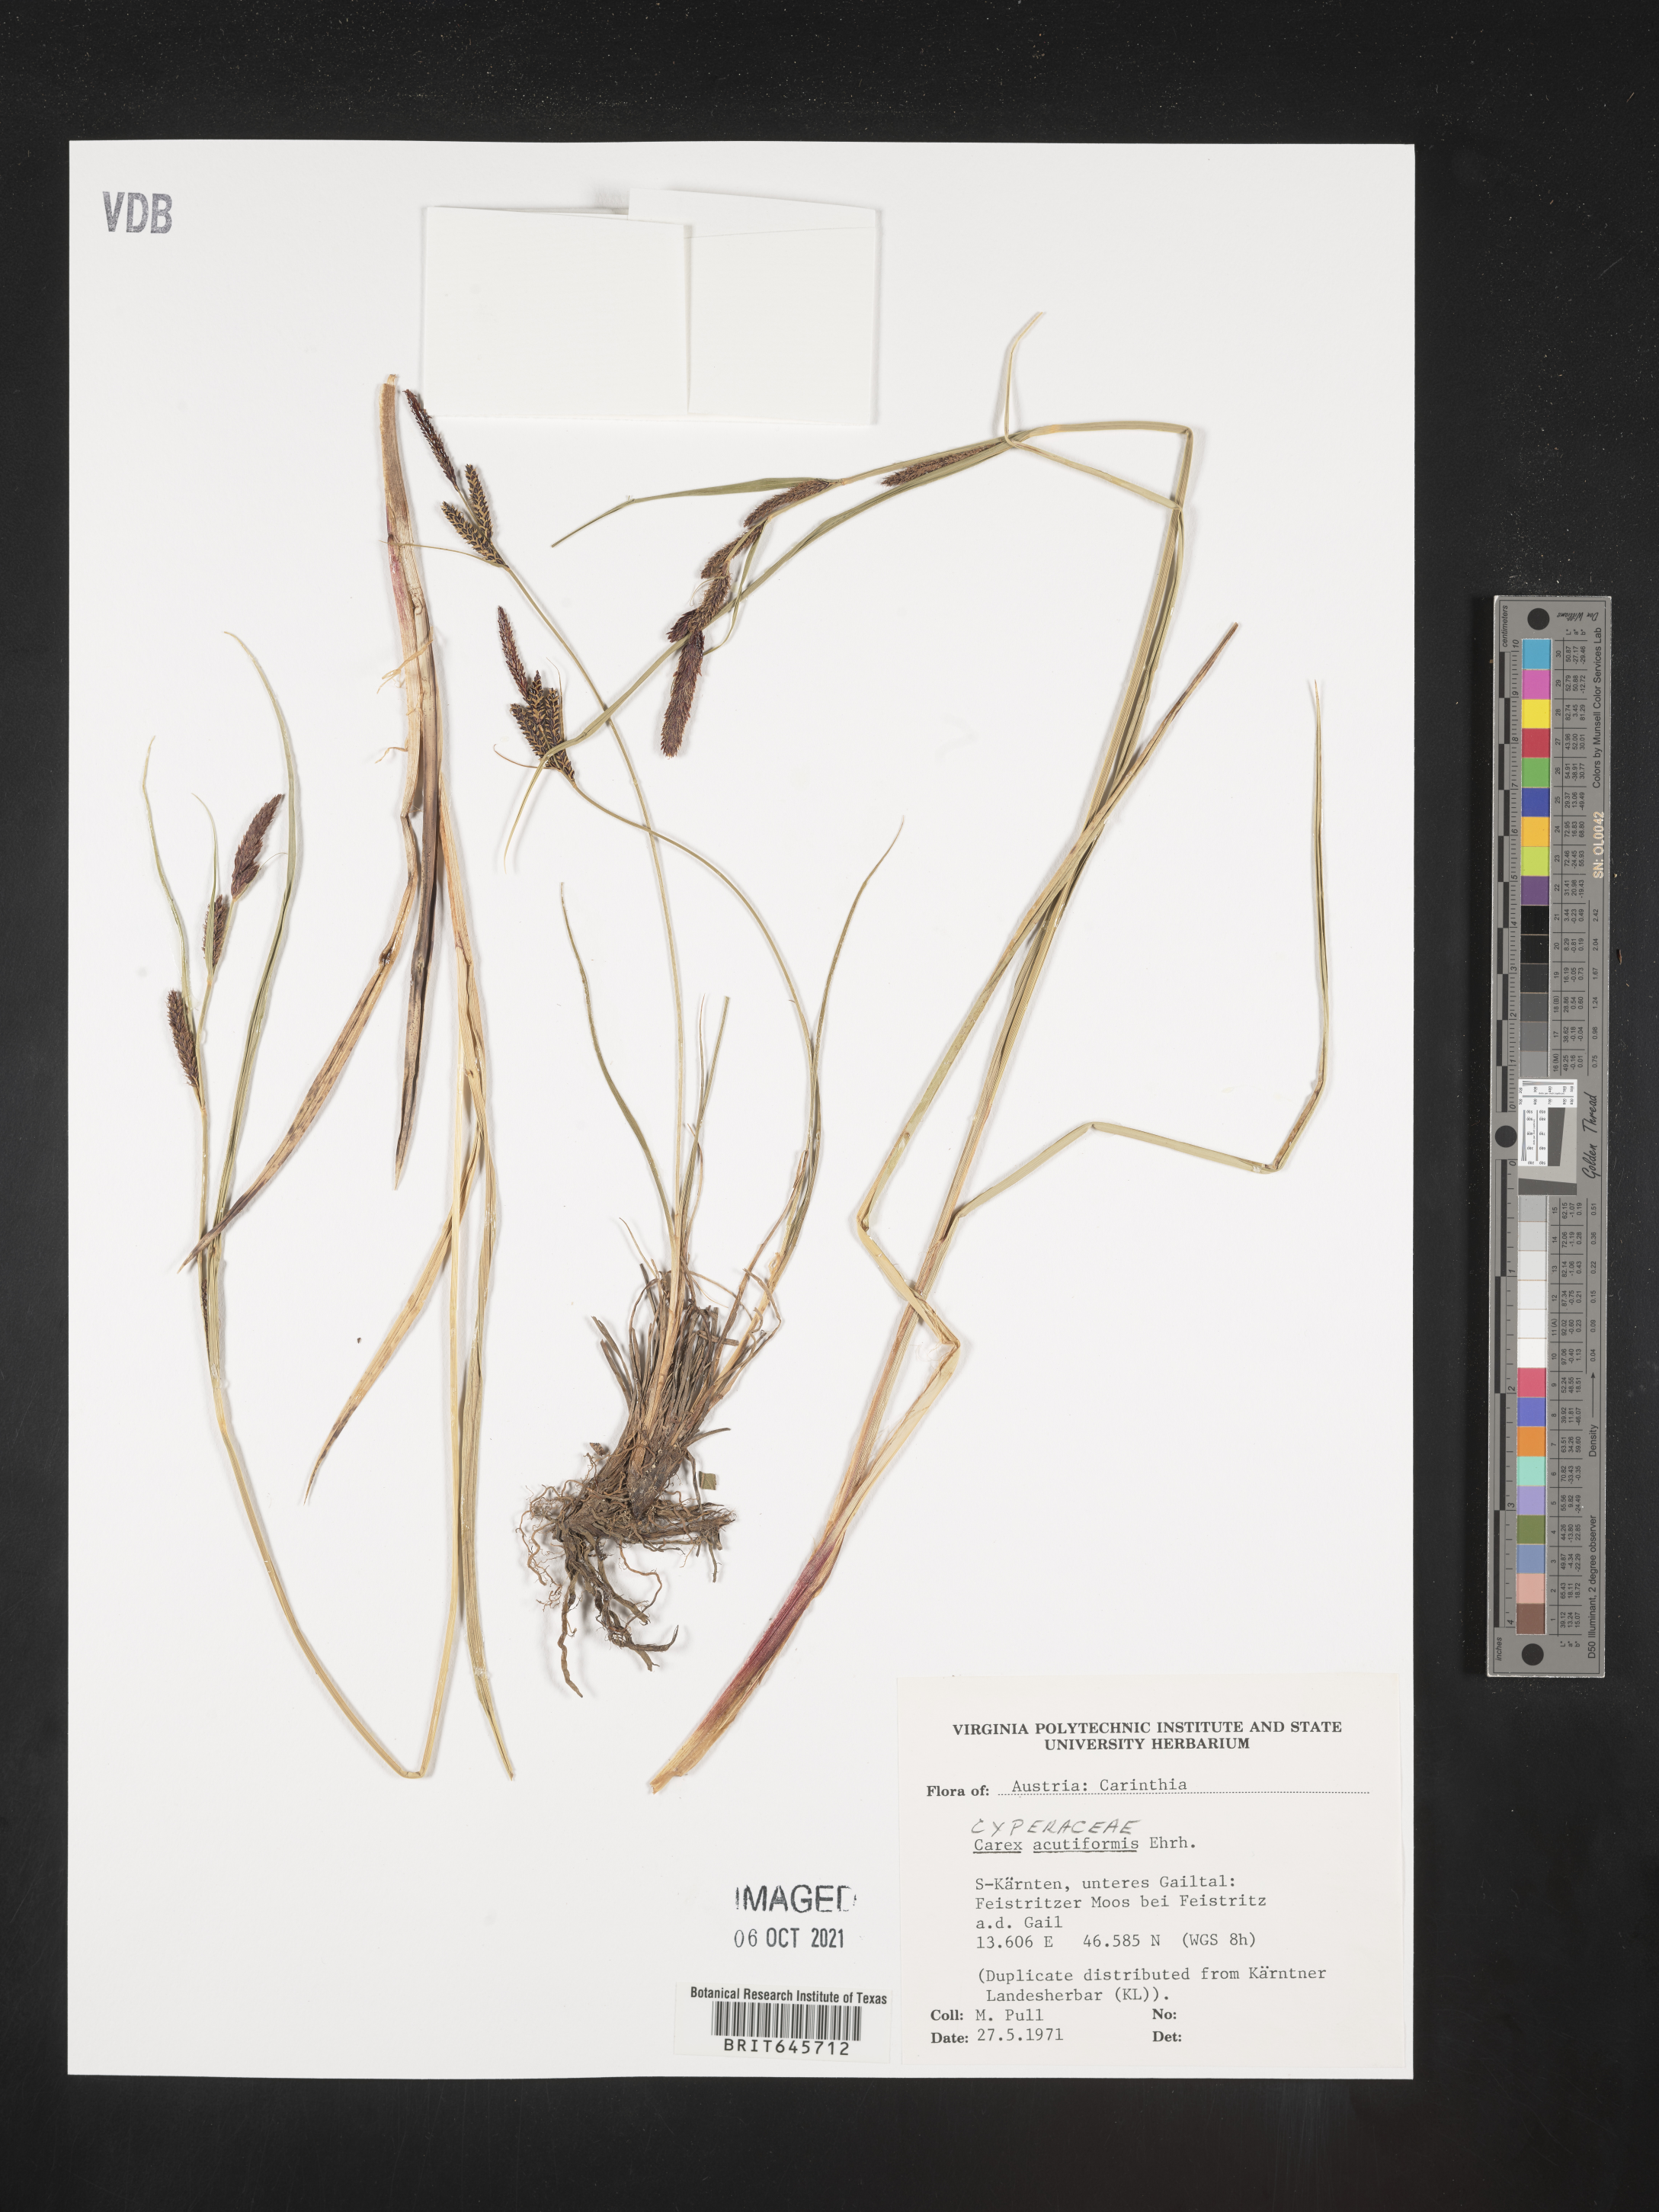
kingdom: Plantae
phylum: Tracheophyta
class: Liliopsida
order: Poales
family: Cyperaceae
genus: Carex
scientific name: Carex acutiformis
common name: Lesser pond-sedge
